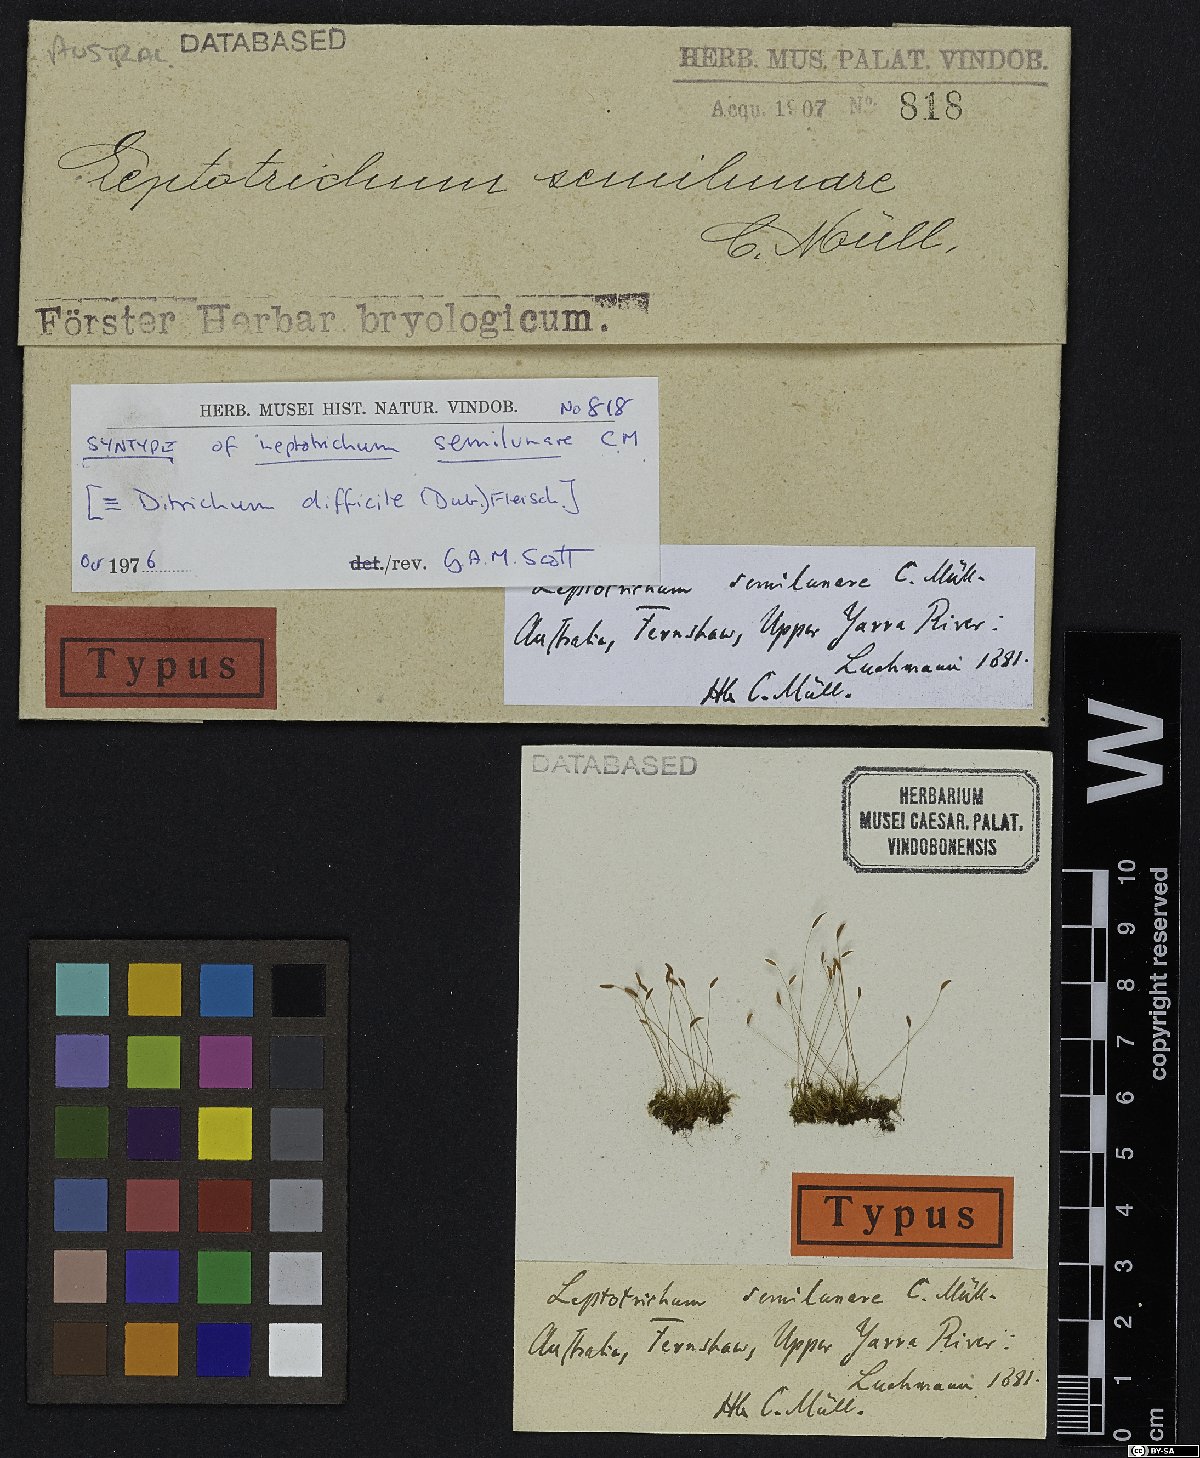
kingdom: Plantae
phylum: Bryophyta
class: Bryopsida
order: Dicranales
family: Ditrichaceae
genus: Ditrichum
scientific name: Ditrichum difficile
